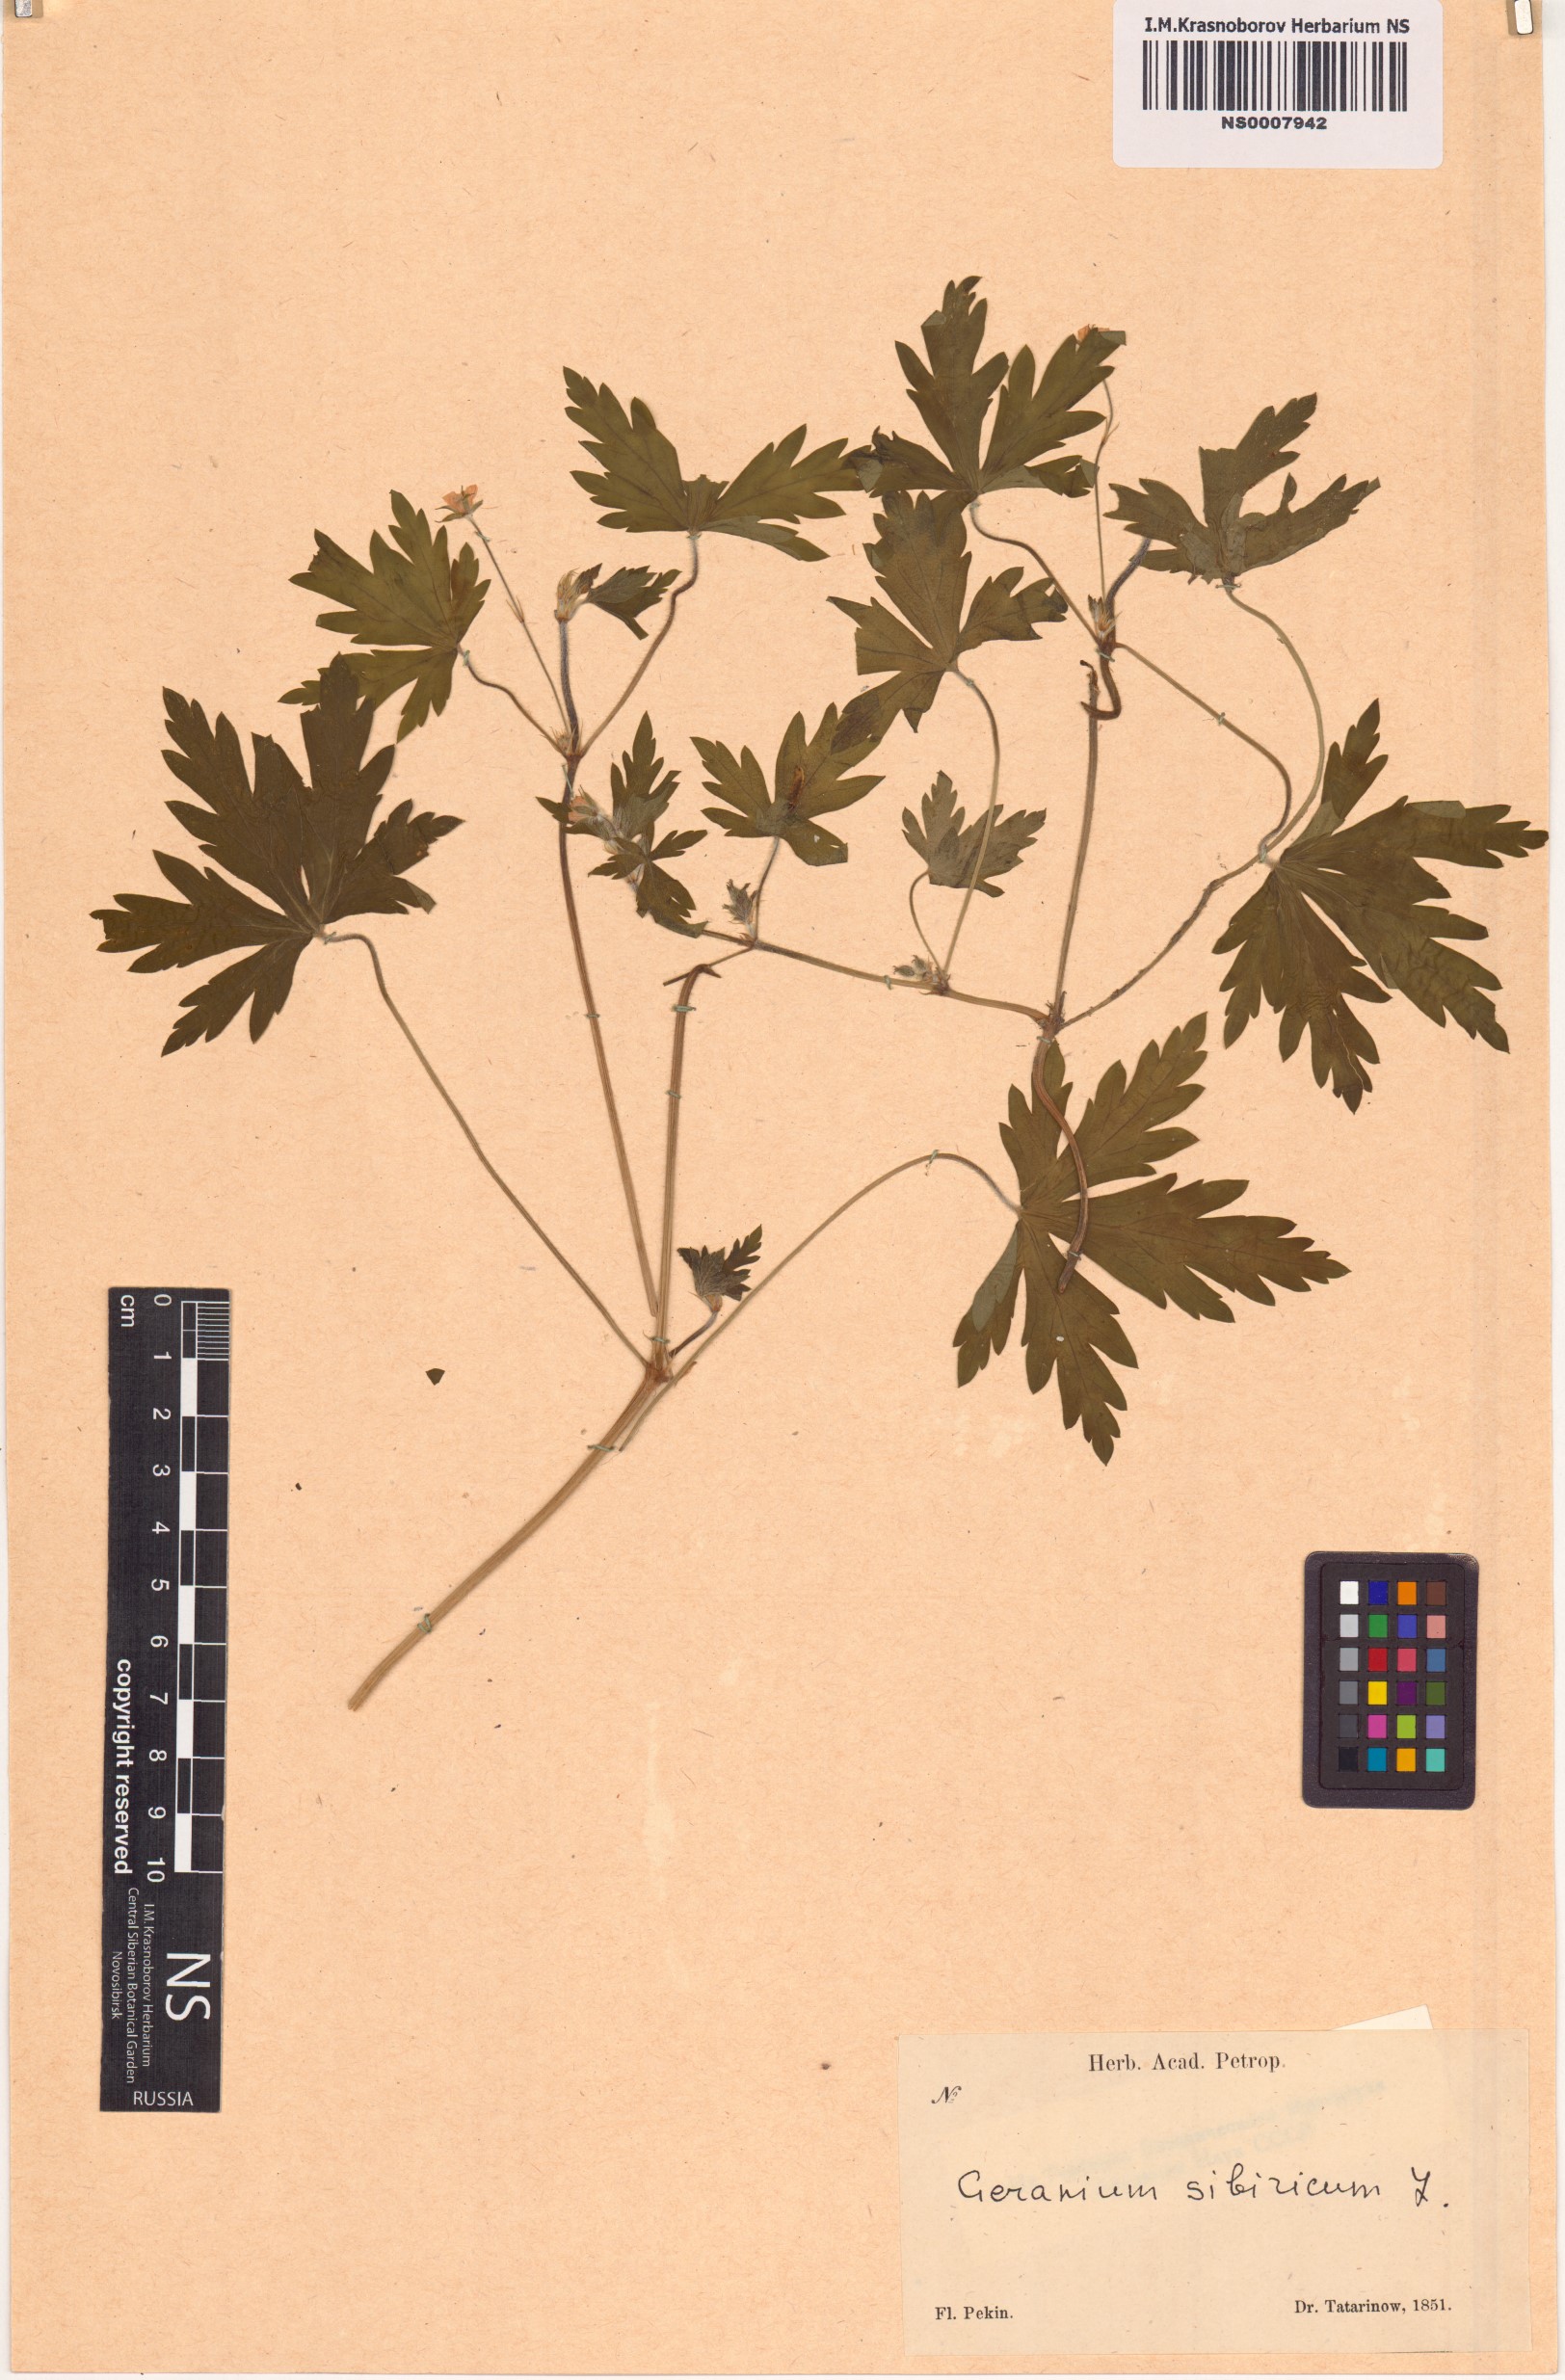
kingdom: Plantae
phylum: Tracheophyta
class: Magnoliopsida
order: Geraniales
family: Geraniaceae
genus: Geranium
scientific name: Geranium sibiricum
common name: Siberian crane's-bill
